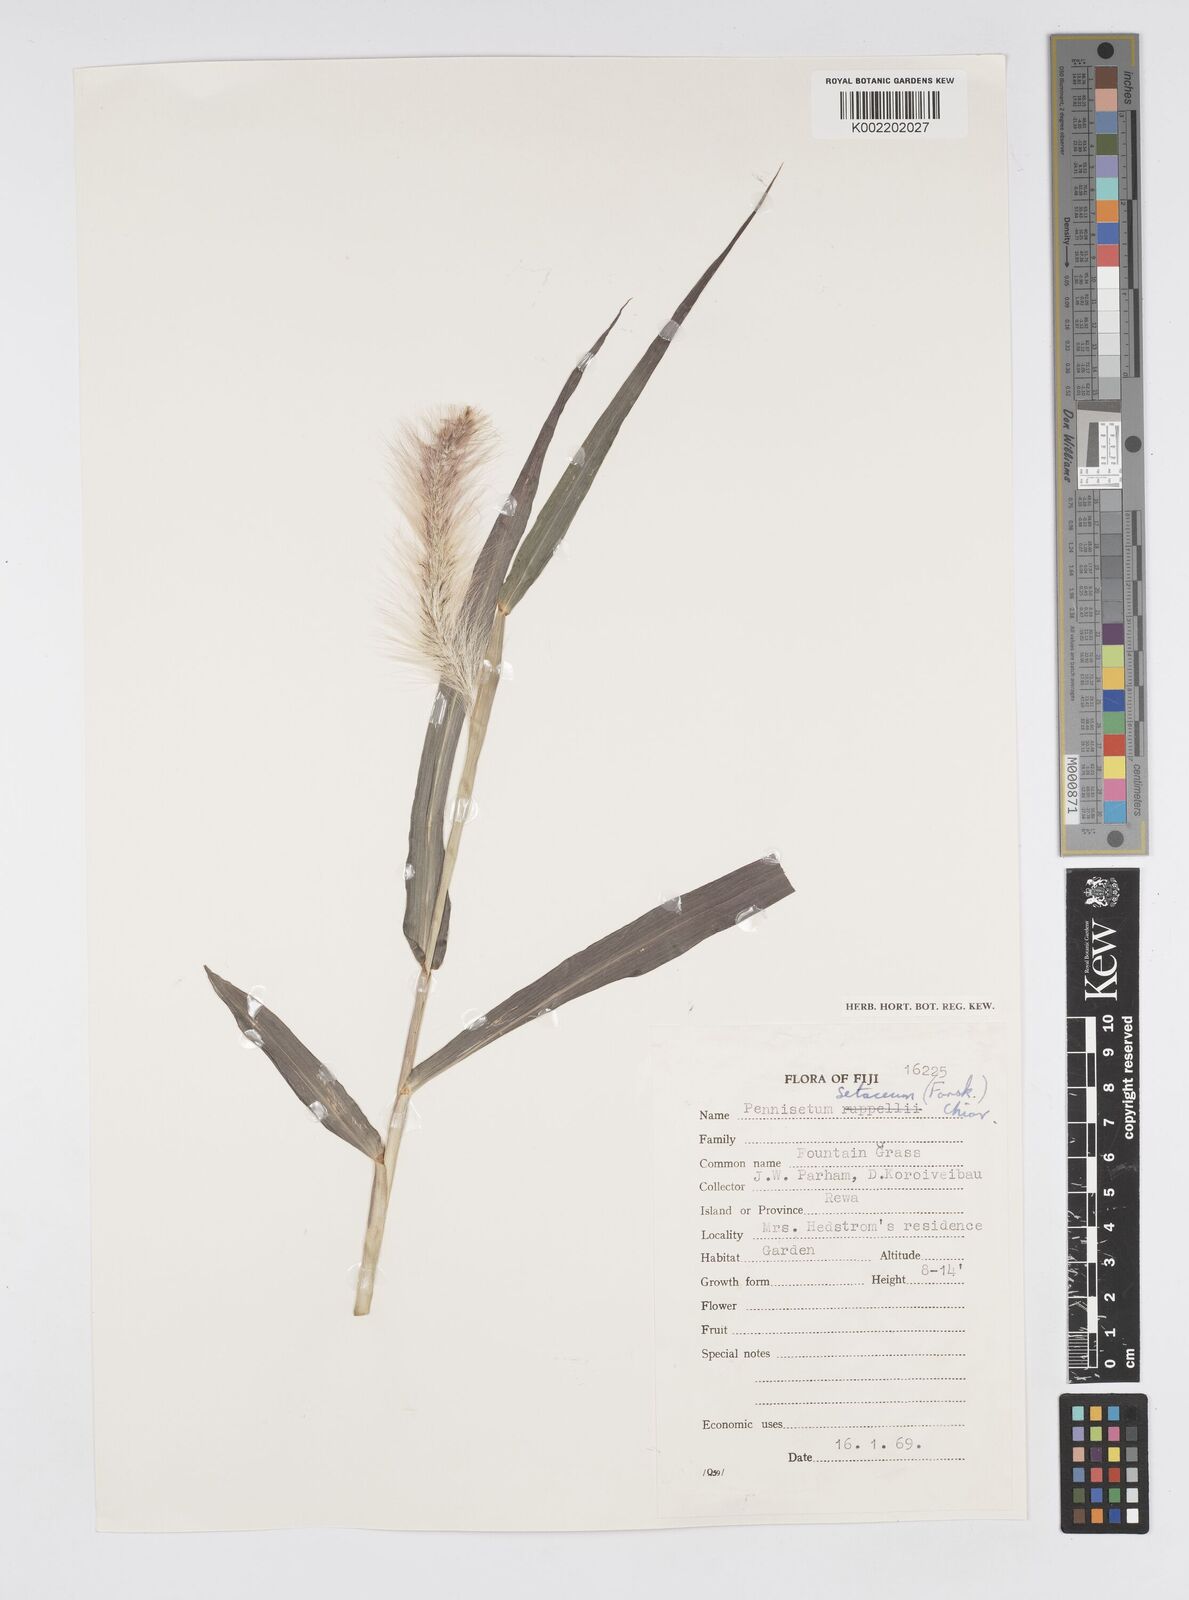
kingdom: Plantae
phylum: Tracheophyta
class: Liliopsida
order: Poales
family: Poaceae
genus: Cenchrus
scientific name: Cenchrus purpureus
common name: Elephant grass
